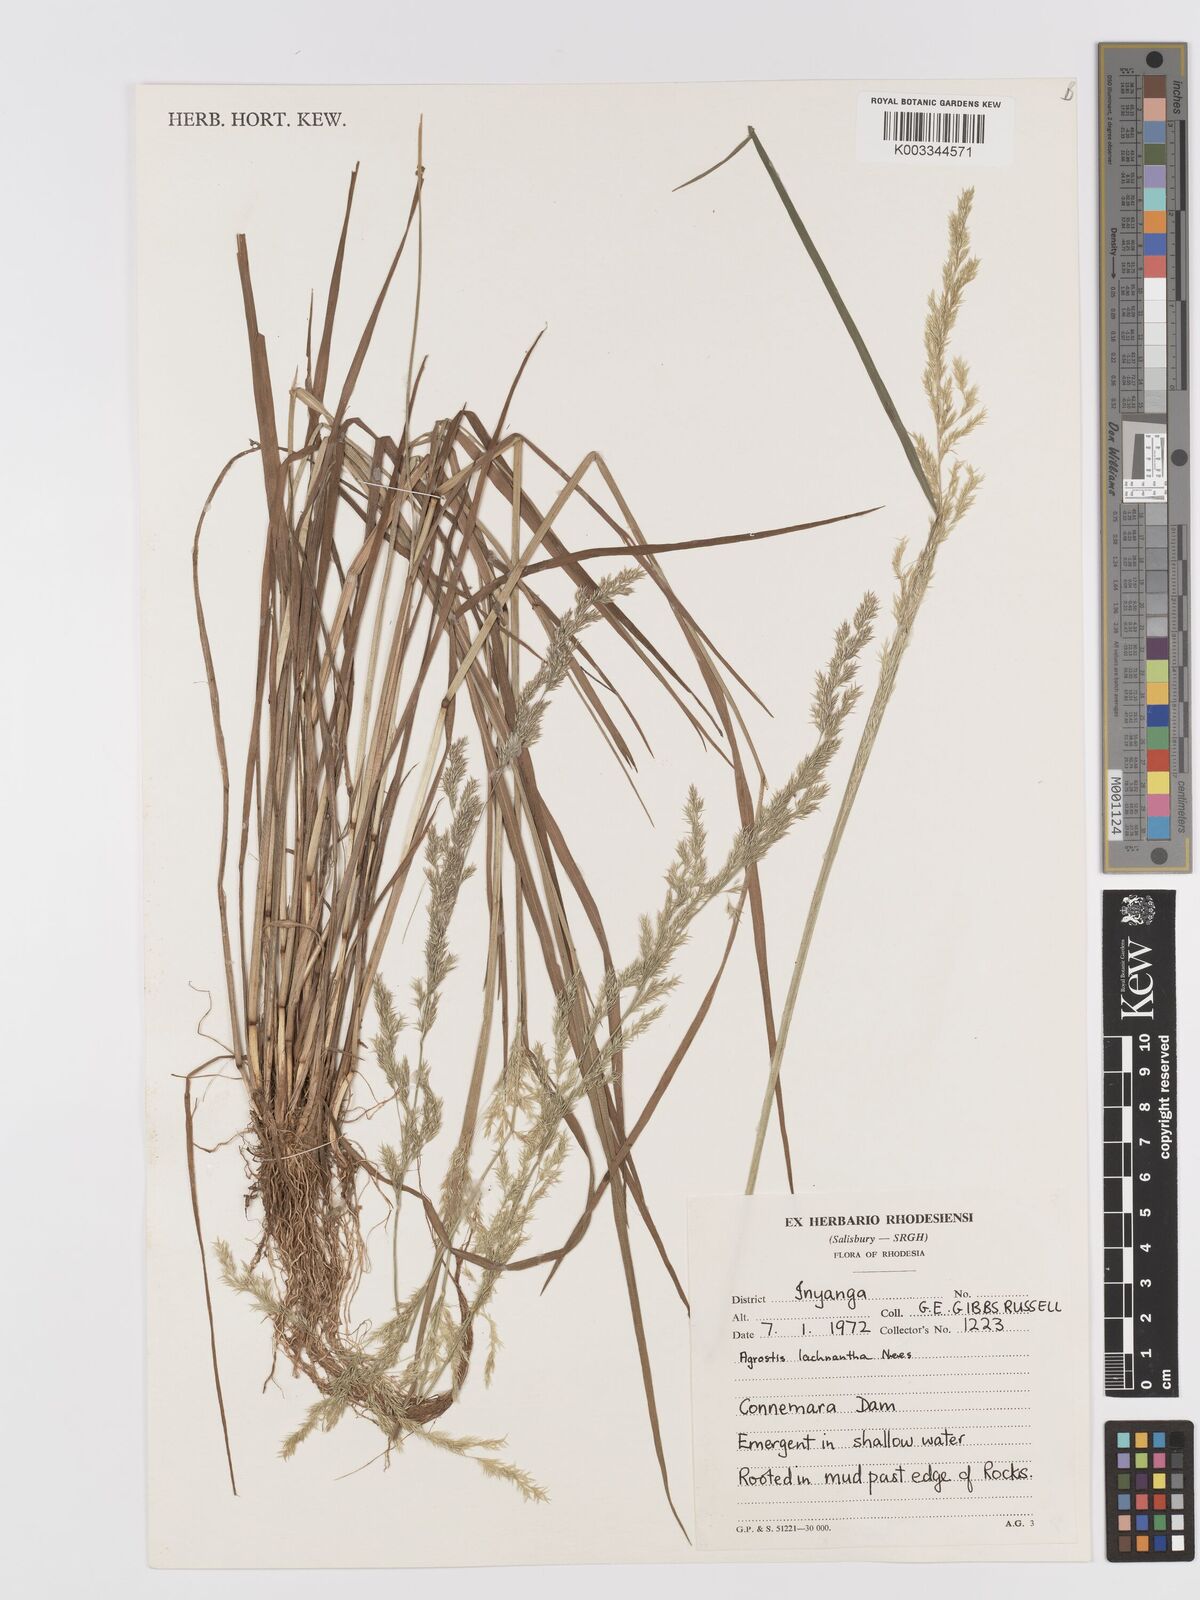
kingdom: Plantae
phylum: Tracheophyta
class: Liliopsida
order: Poales
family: Poaceae
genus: Lachnagrostis
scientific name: Lachnagrostis lachnantha
